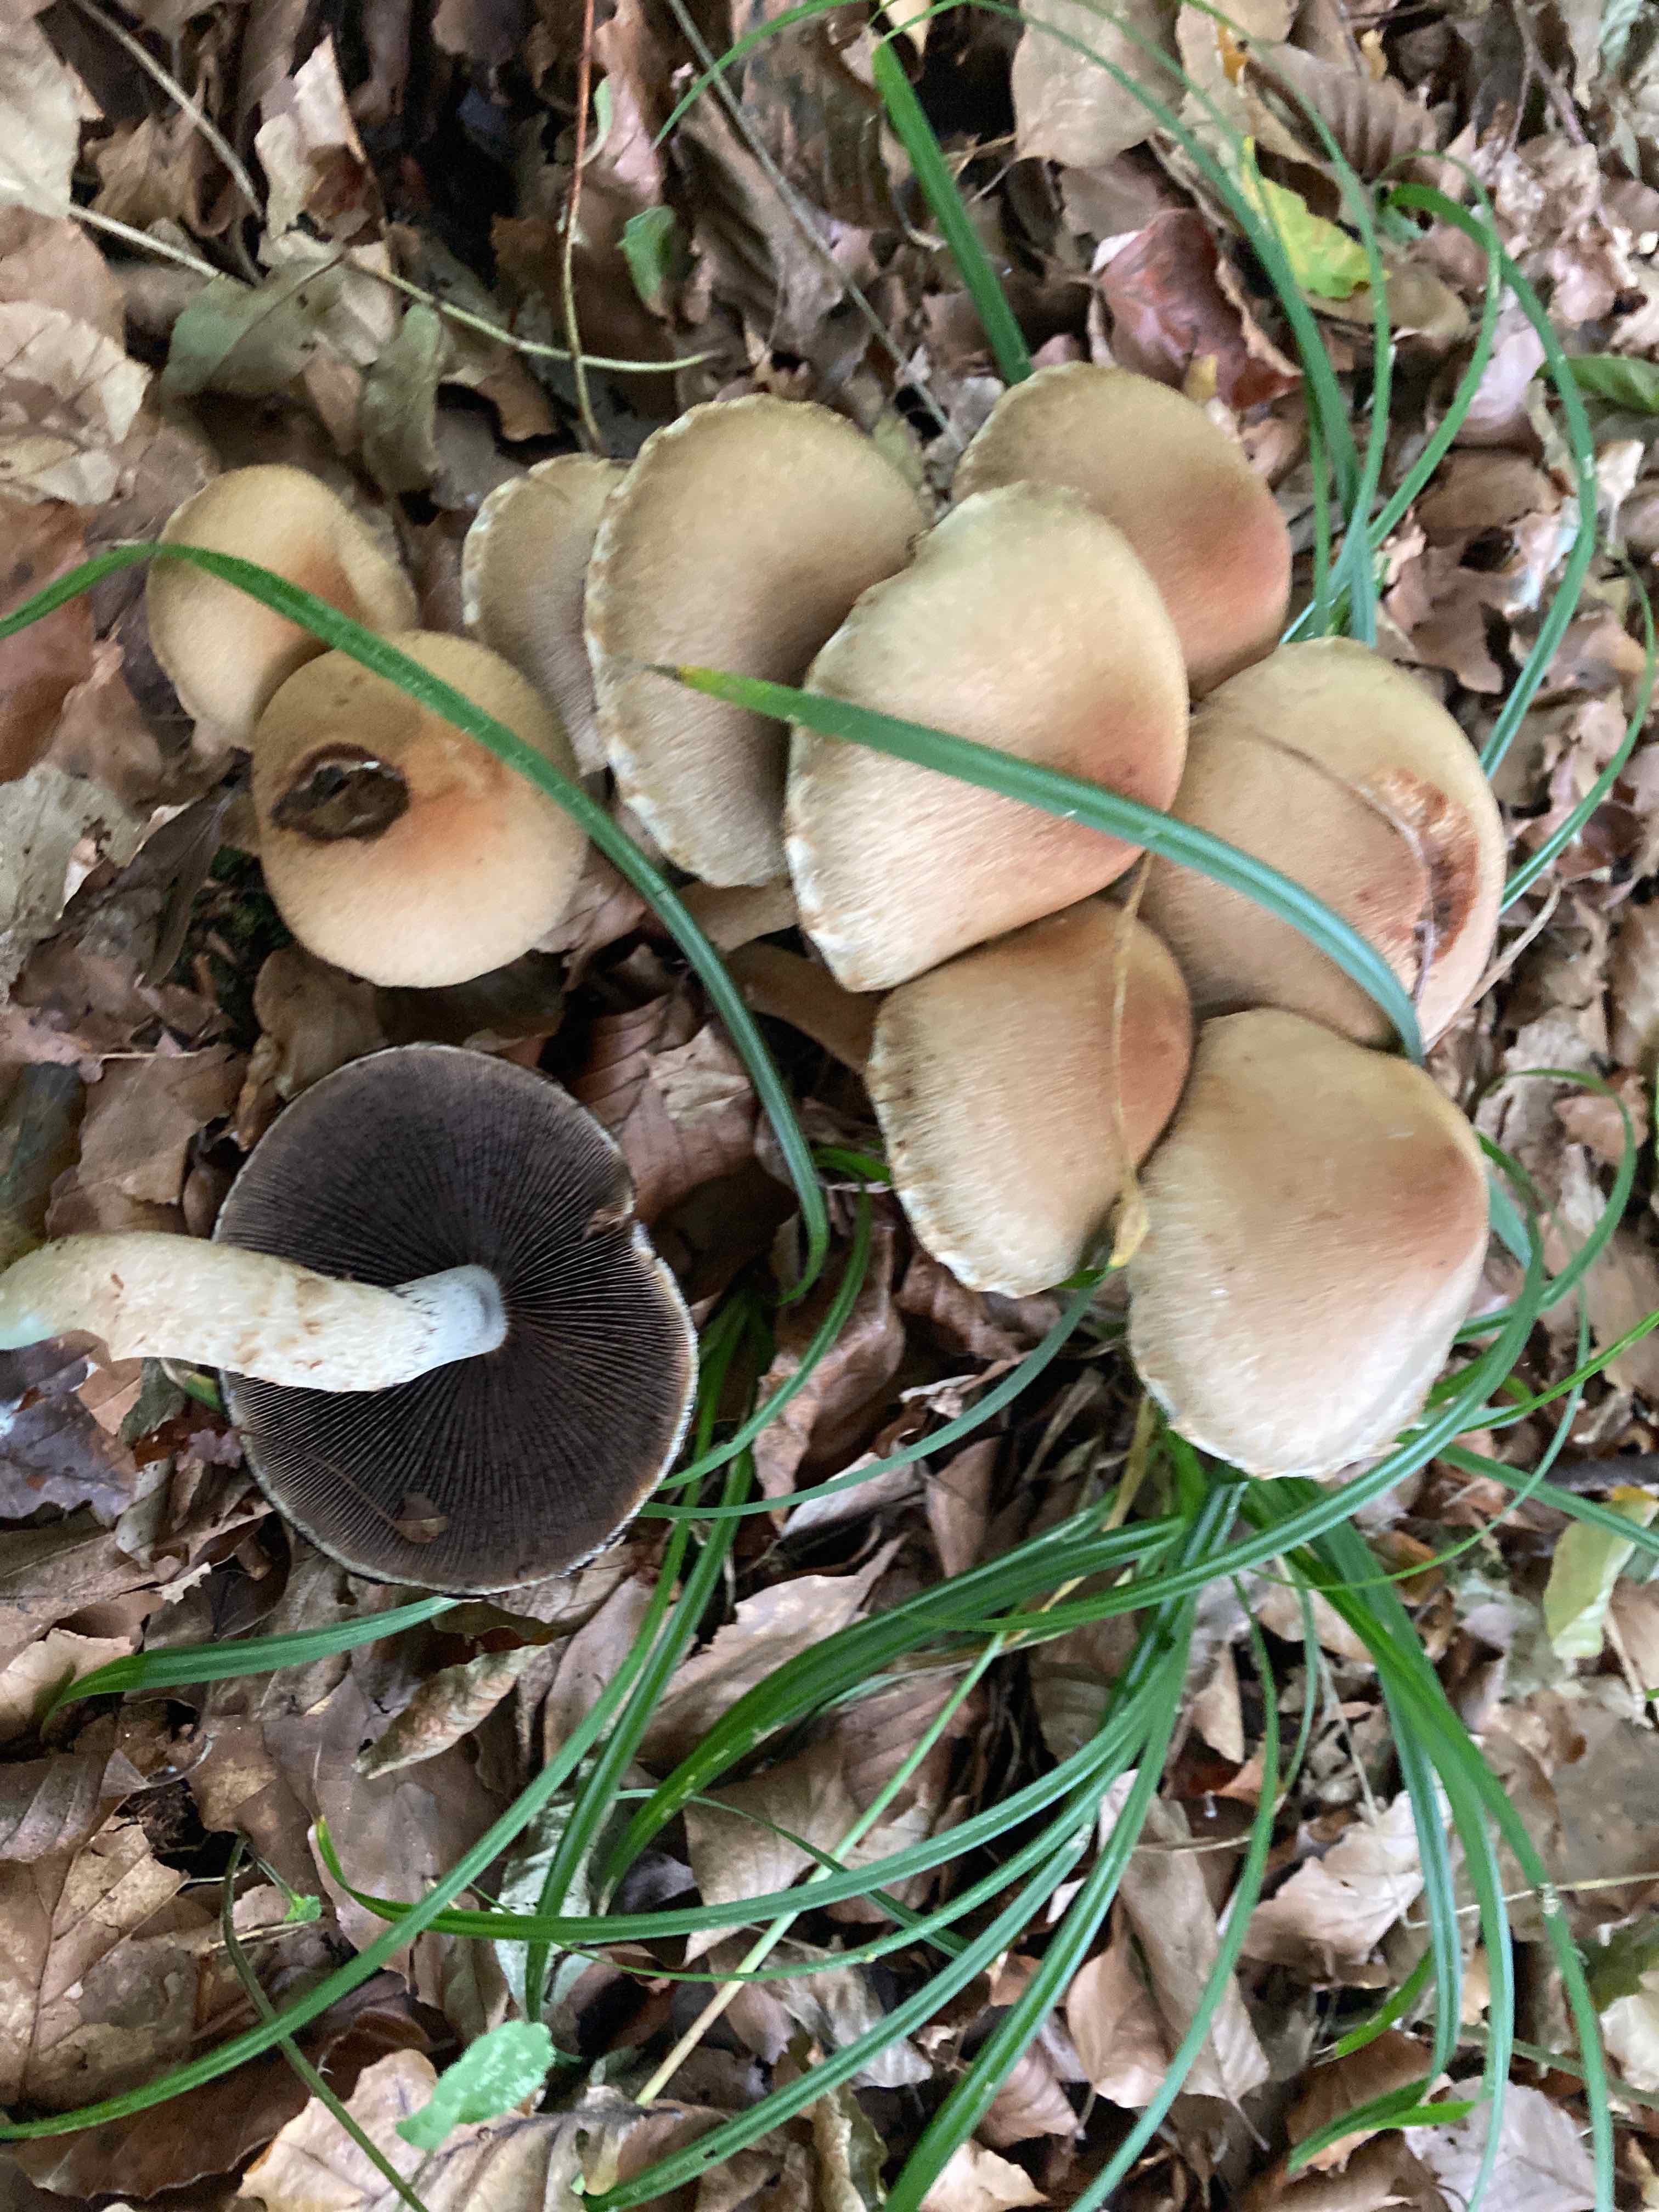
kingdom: Fungi
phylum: Basidiomycota
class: Agaricomycetes
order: Agaricales
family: Psathyrellaceae
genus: Lacrymaria
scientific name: Lacrymaria lacrymabunda
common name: grædende mørkhat
